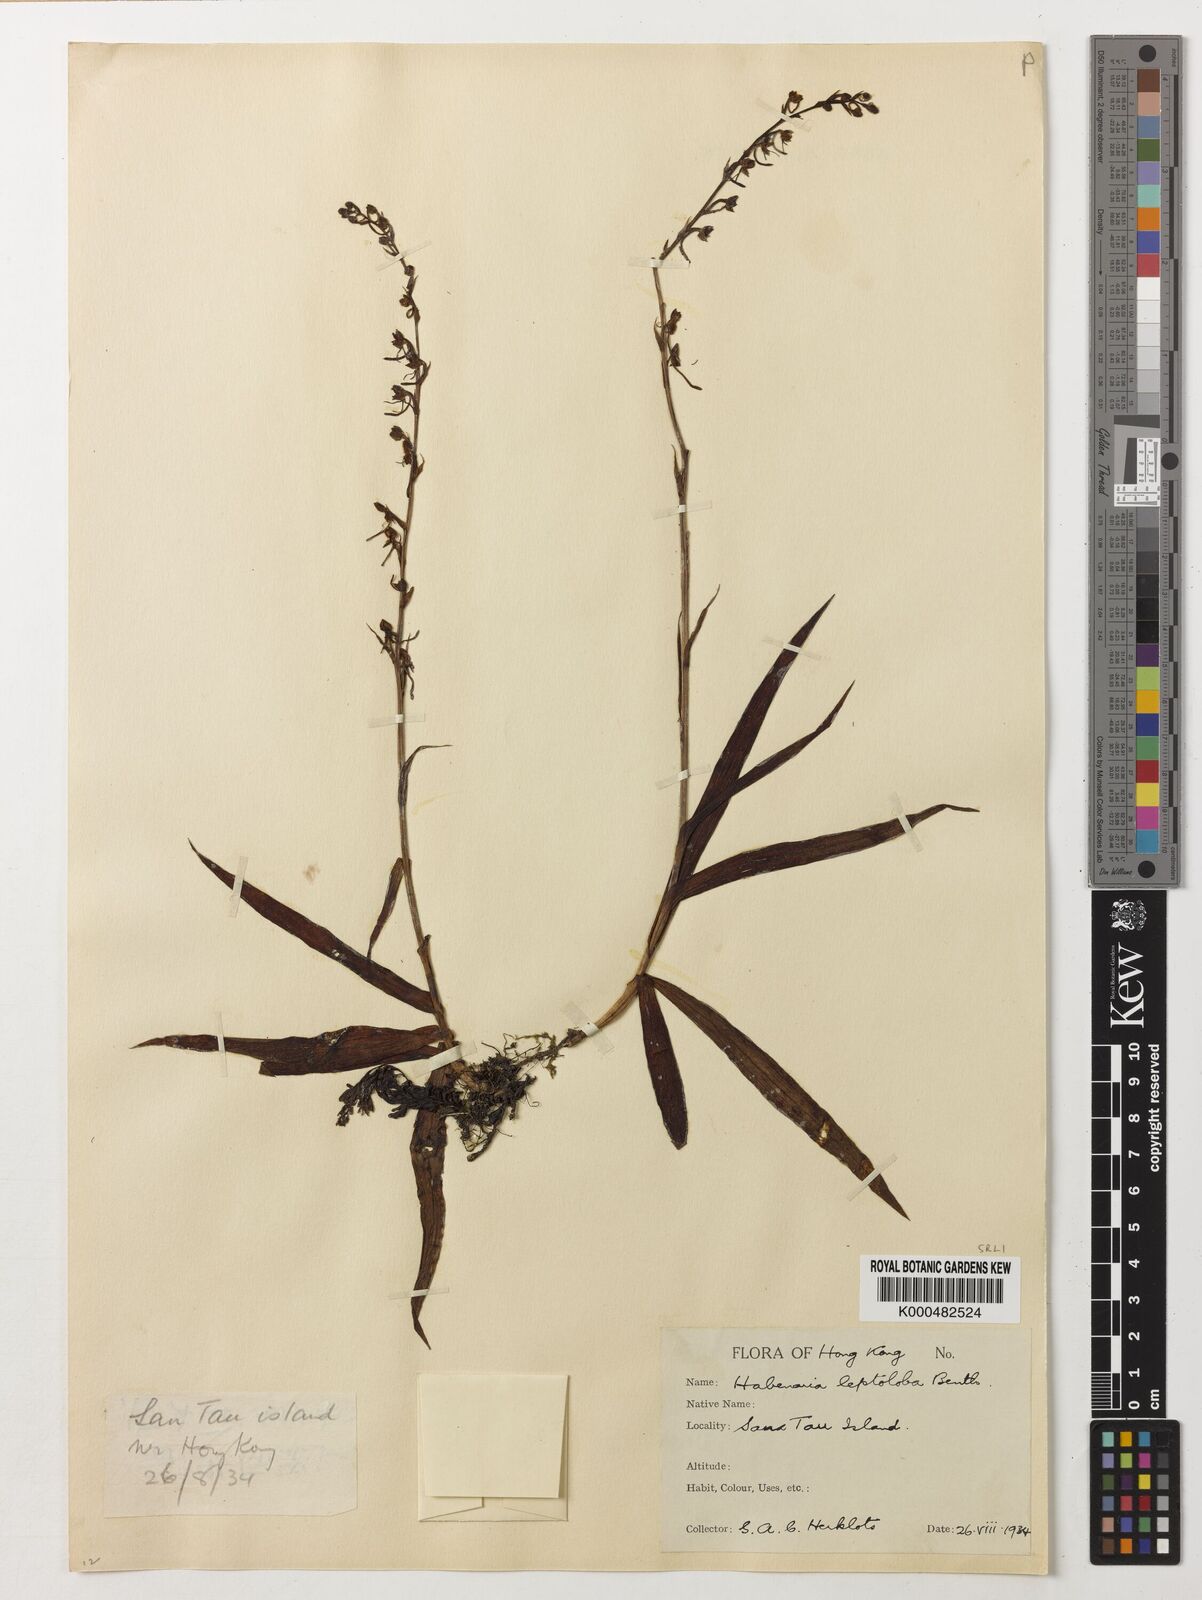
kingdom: Plantae
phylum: Tracheophyta
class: Liliopsida
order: Asparagales
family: Orchidaceae
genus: Habenaria
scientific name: Habenaria leptoloba
